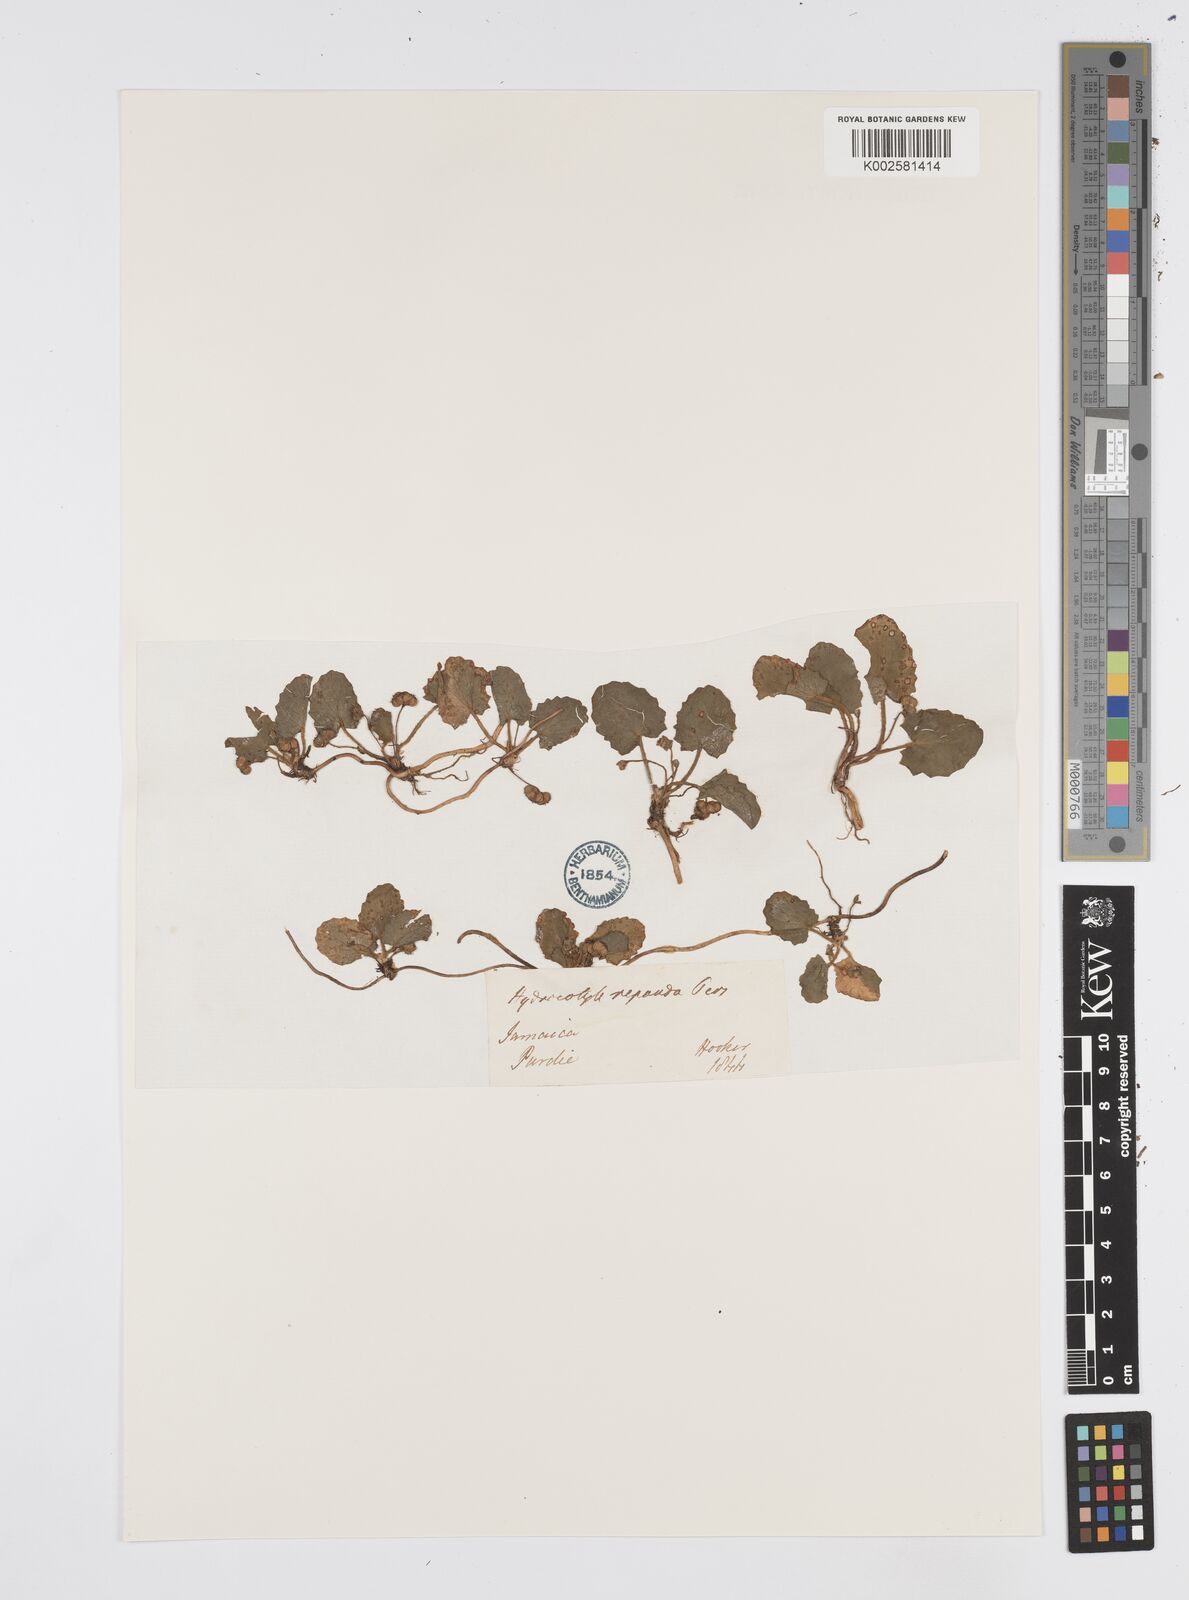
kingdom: Plantae
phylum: Tracheophyta
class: Magnoliopsida
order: Apiales
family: Apiaceae
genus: Centella
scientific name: Centella asiatica
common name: Spadeleaf
